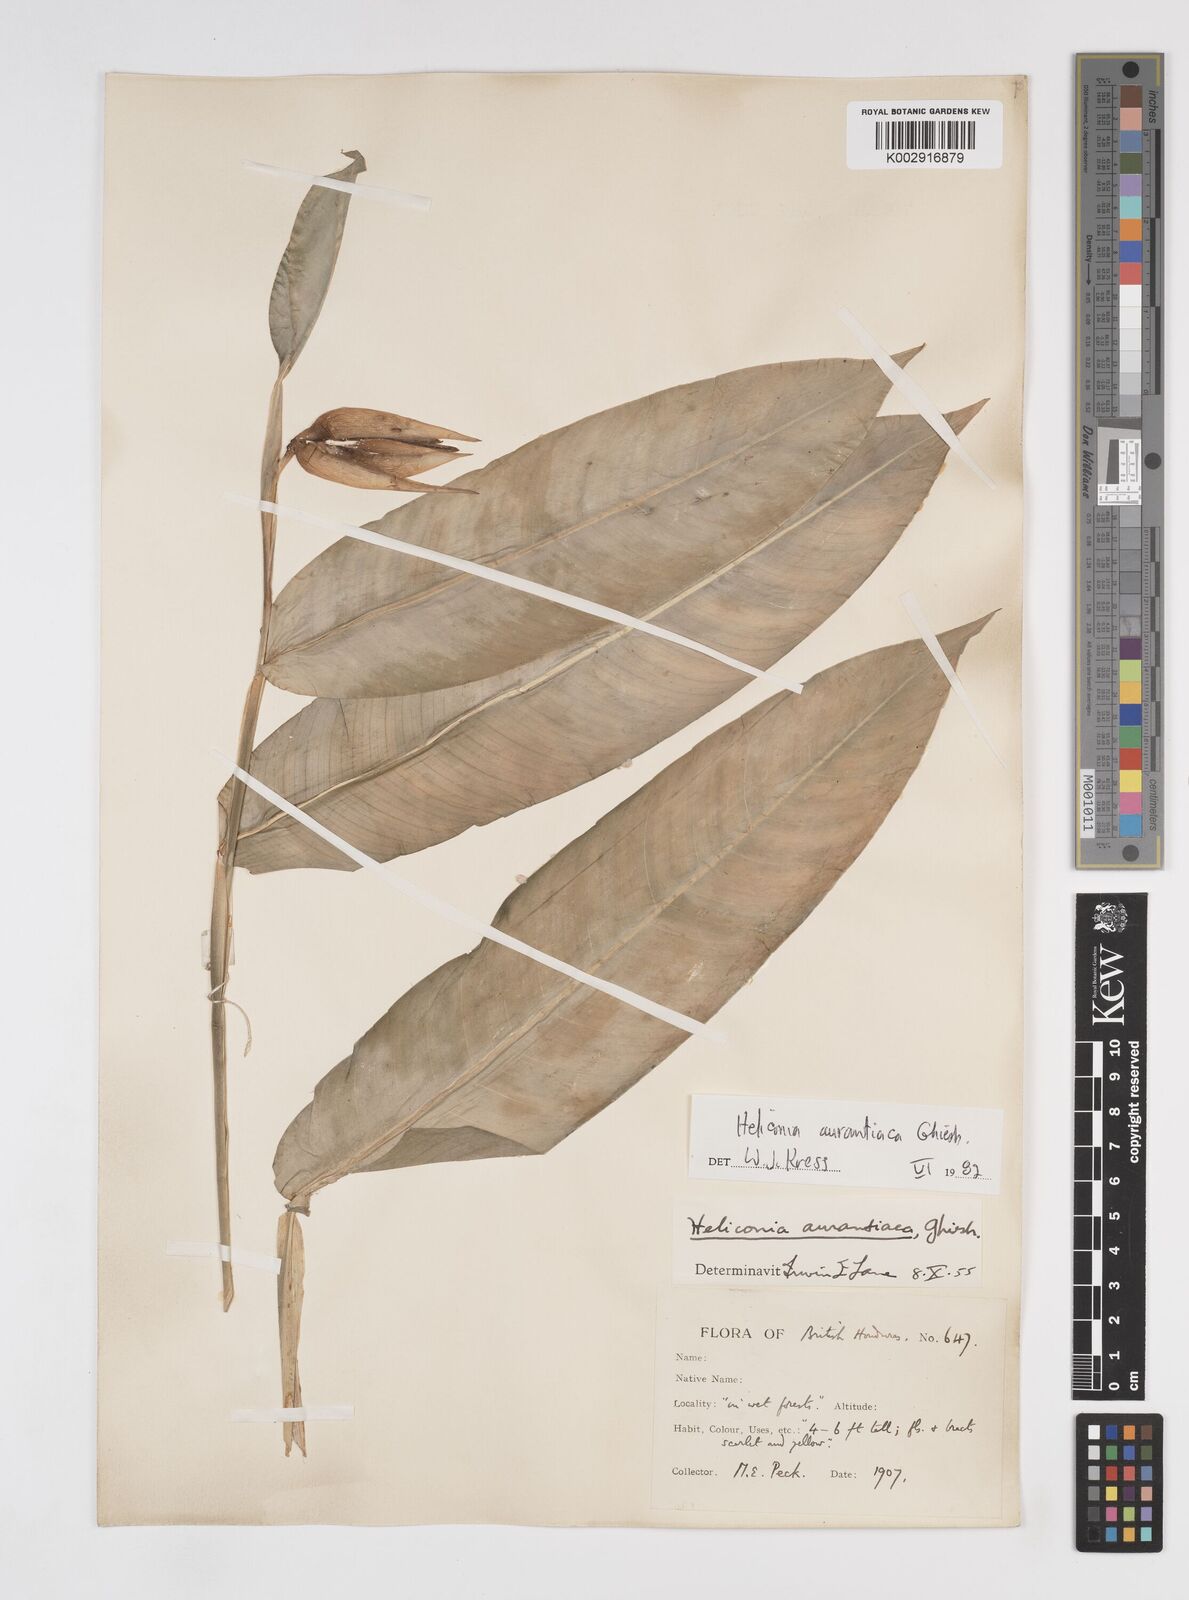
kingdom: Plantae
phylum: Tracheophyta
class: Liliopsida
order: Zingiberales
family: Heliconiaceae
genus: Heliconia
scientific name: Heliconia aurantiaca
